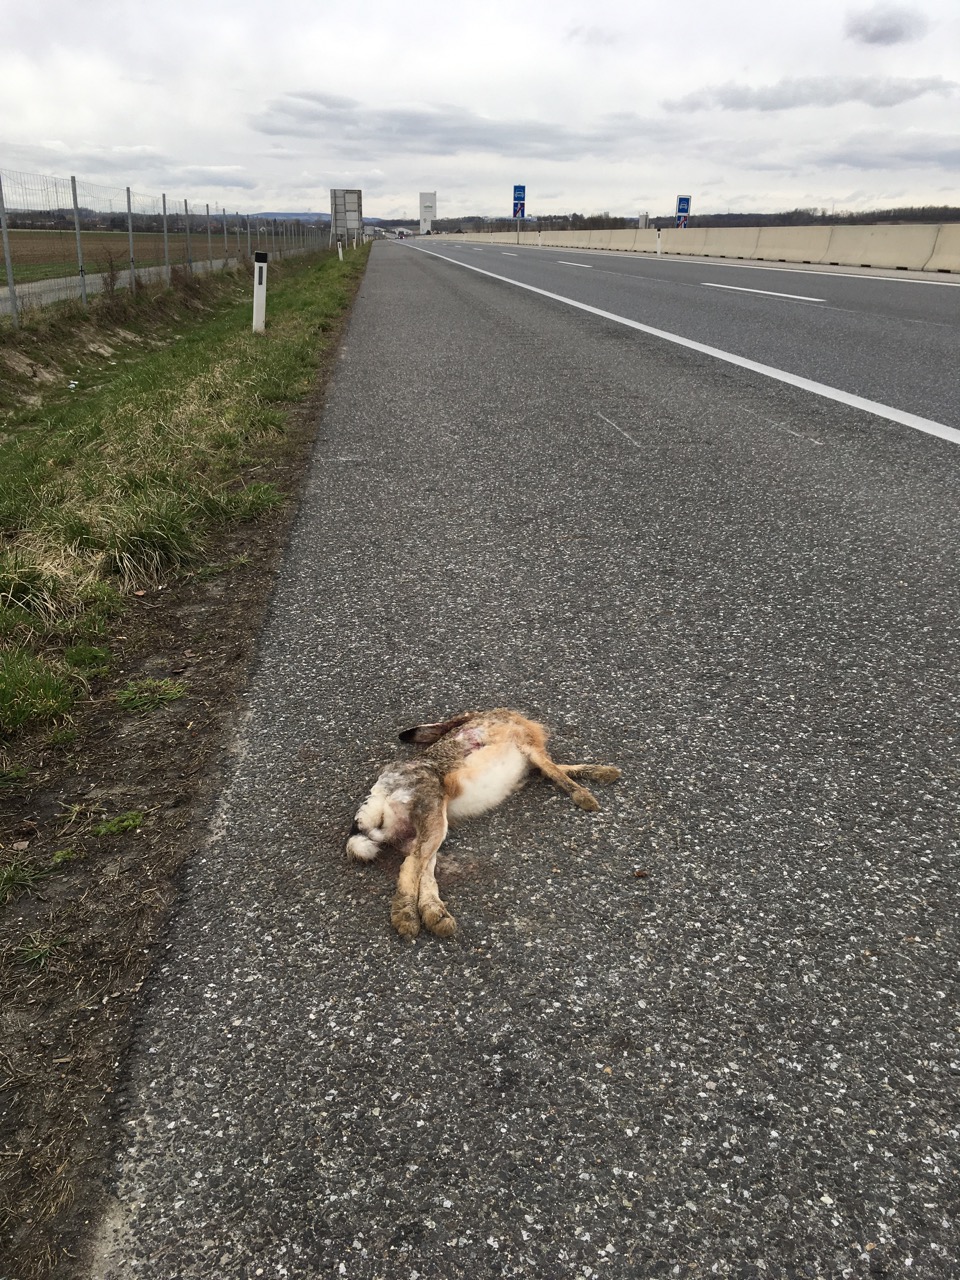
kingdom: Animalia
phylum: Chordata
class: Mammalia
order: Lagomorpha
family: Leporidae
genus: Lepus
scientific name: Lepus europaeus
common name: European hare
